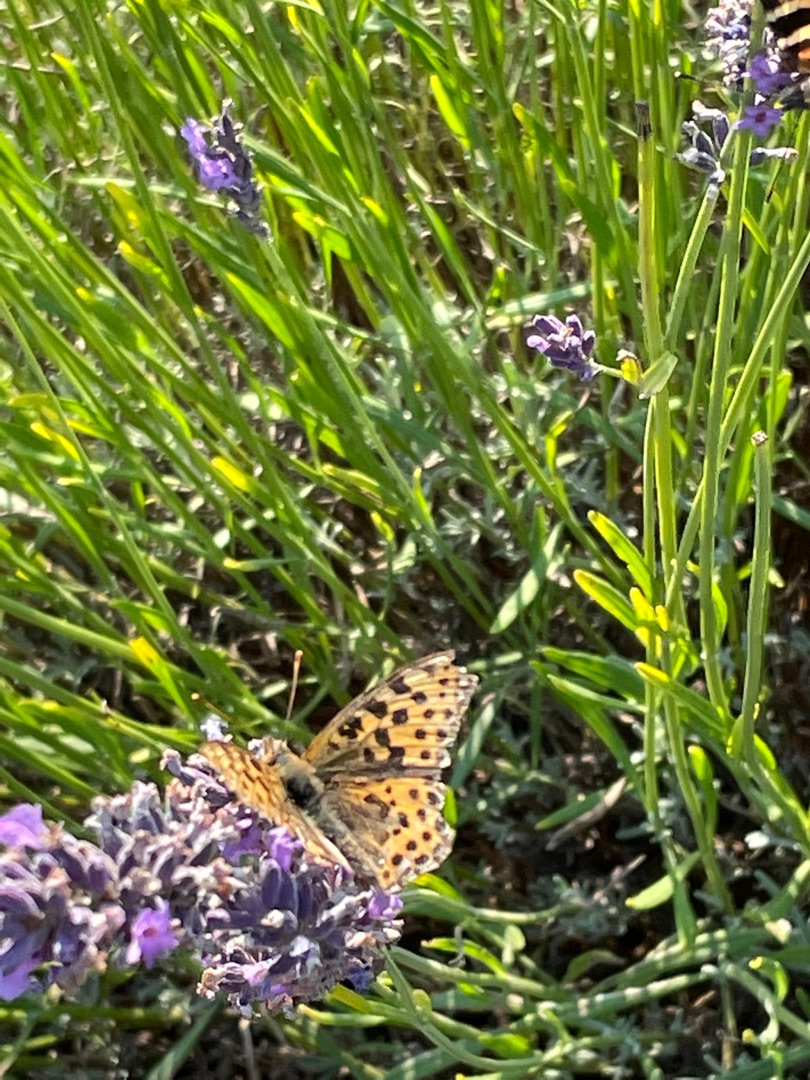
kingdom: Animalia
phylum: Arthropoda
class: Insecta
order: Lepidoptera
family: Nymphalidae
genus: Issoria
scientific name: Issoria lathonia
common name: Storplettet perlemorsommerfugl
